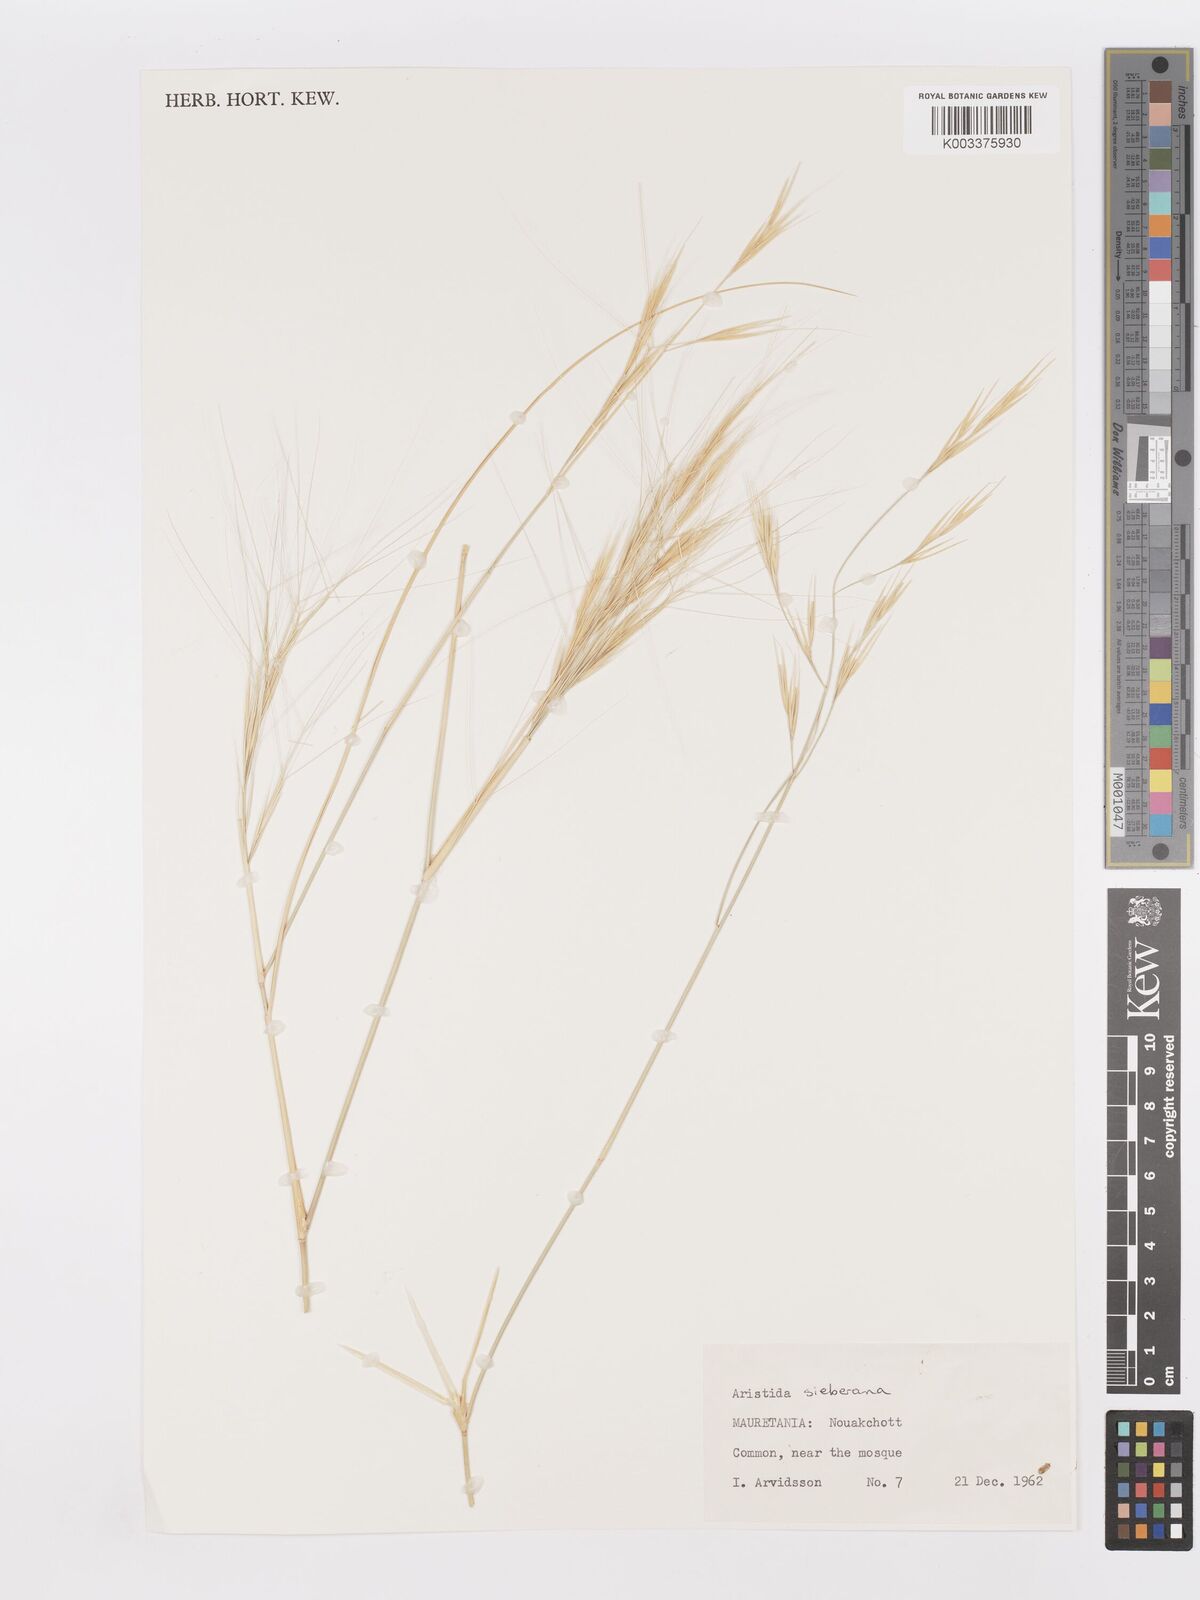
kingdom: Plantae
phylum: Tracheophyta
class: Liliopsida
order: Poales
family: Poaceae
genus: Aristida
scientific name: Aristida sieberiana
